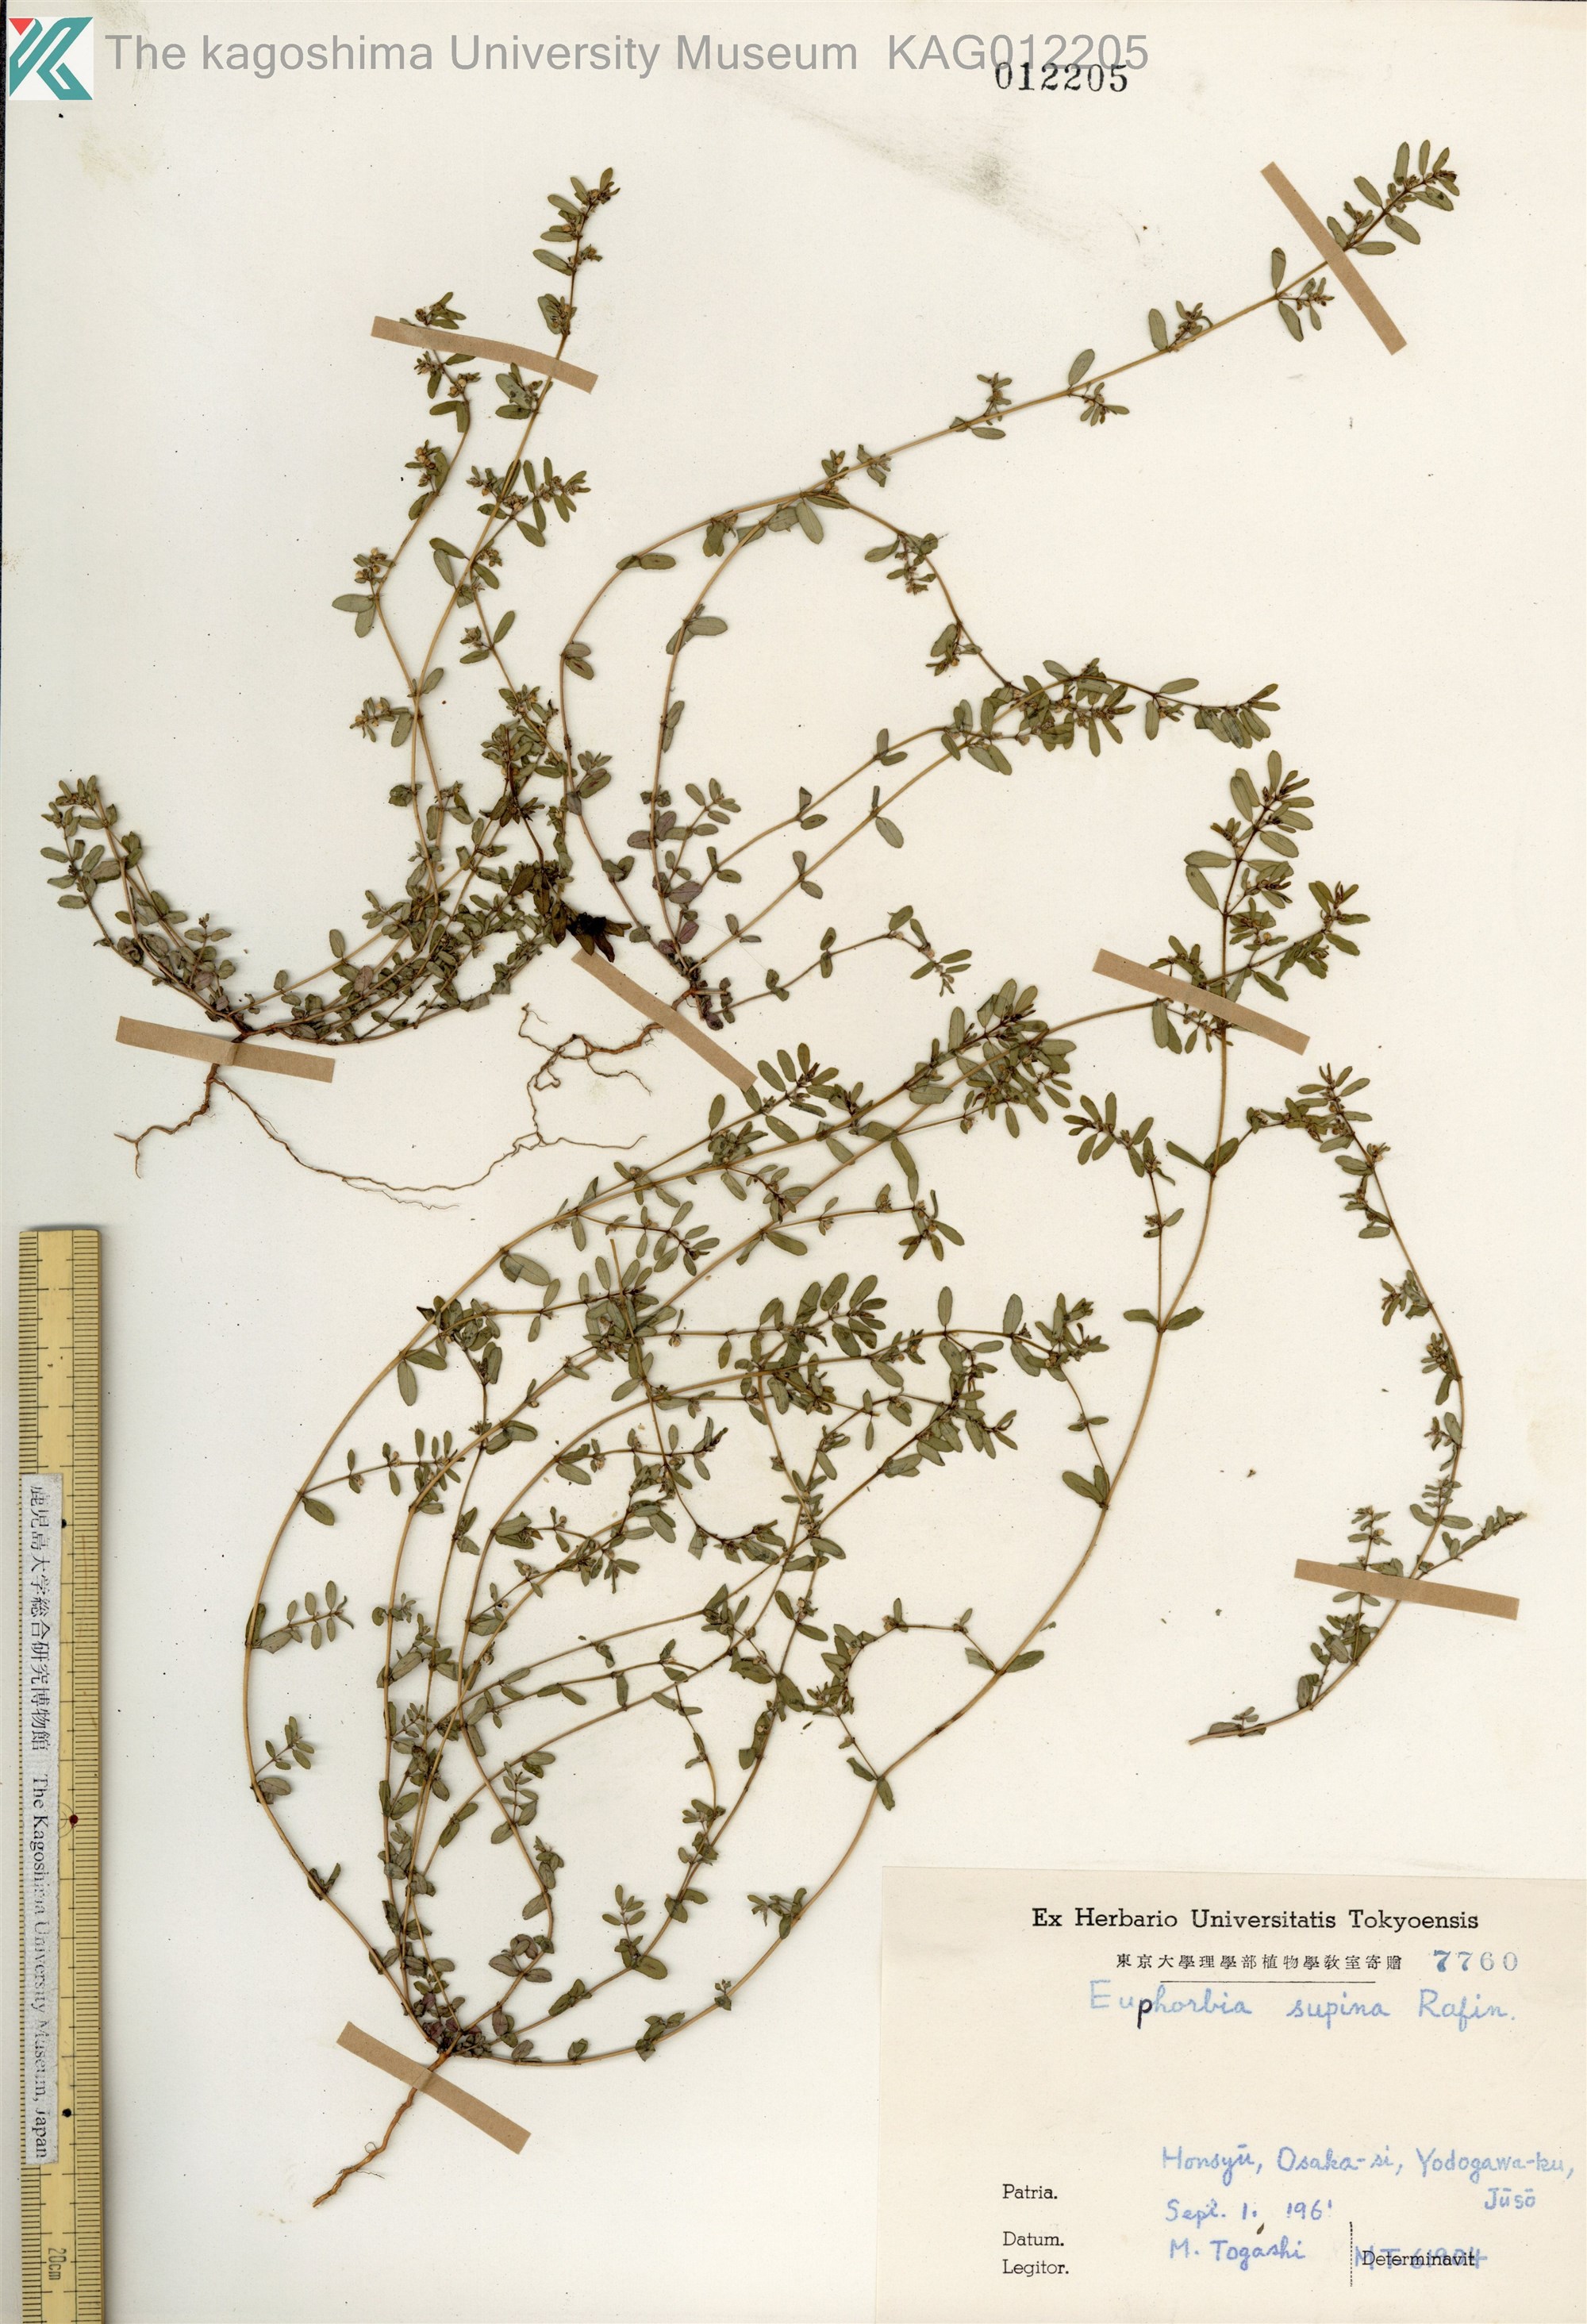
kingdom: Plantae
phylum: Tracheophyta
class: Magnoliopsida
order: Malpighiales
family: Euphorbiaceae
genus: Euphorbia
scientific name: Euphorbia maculata
